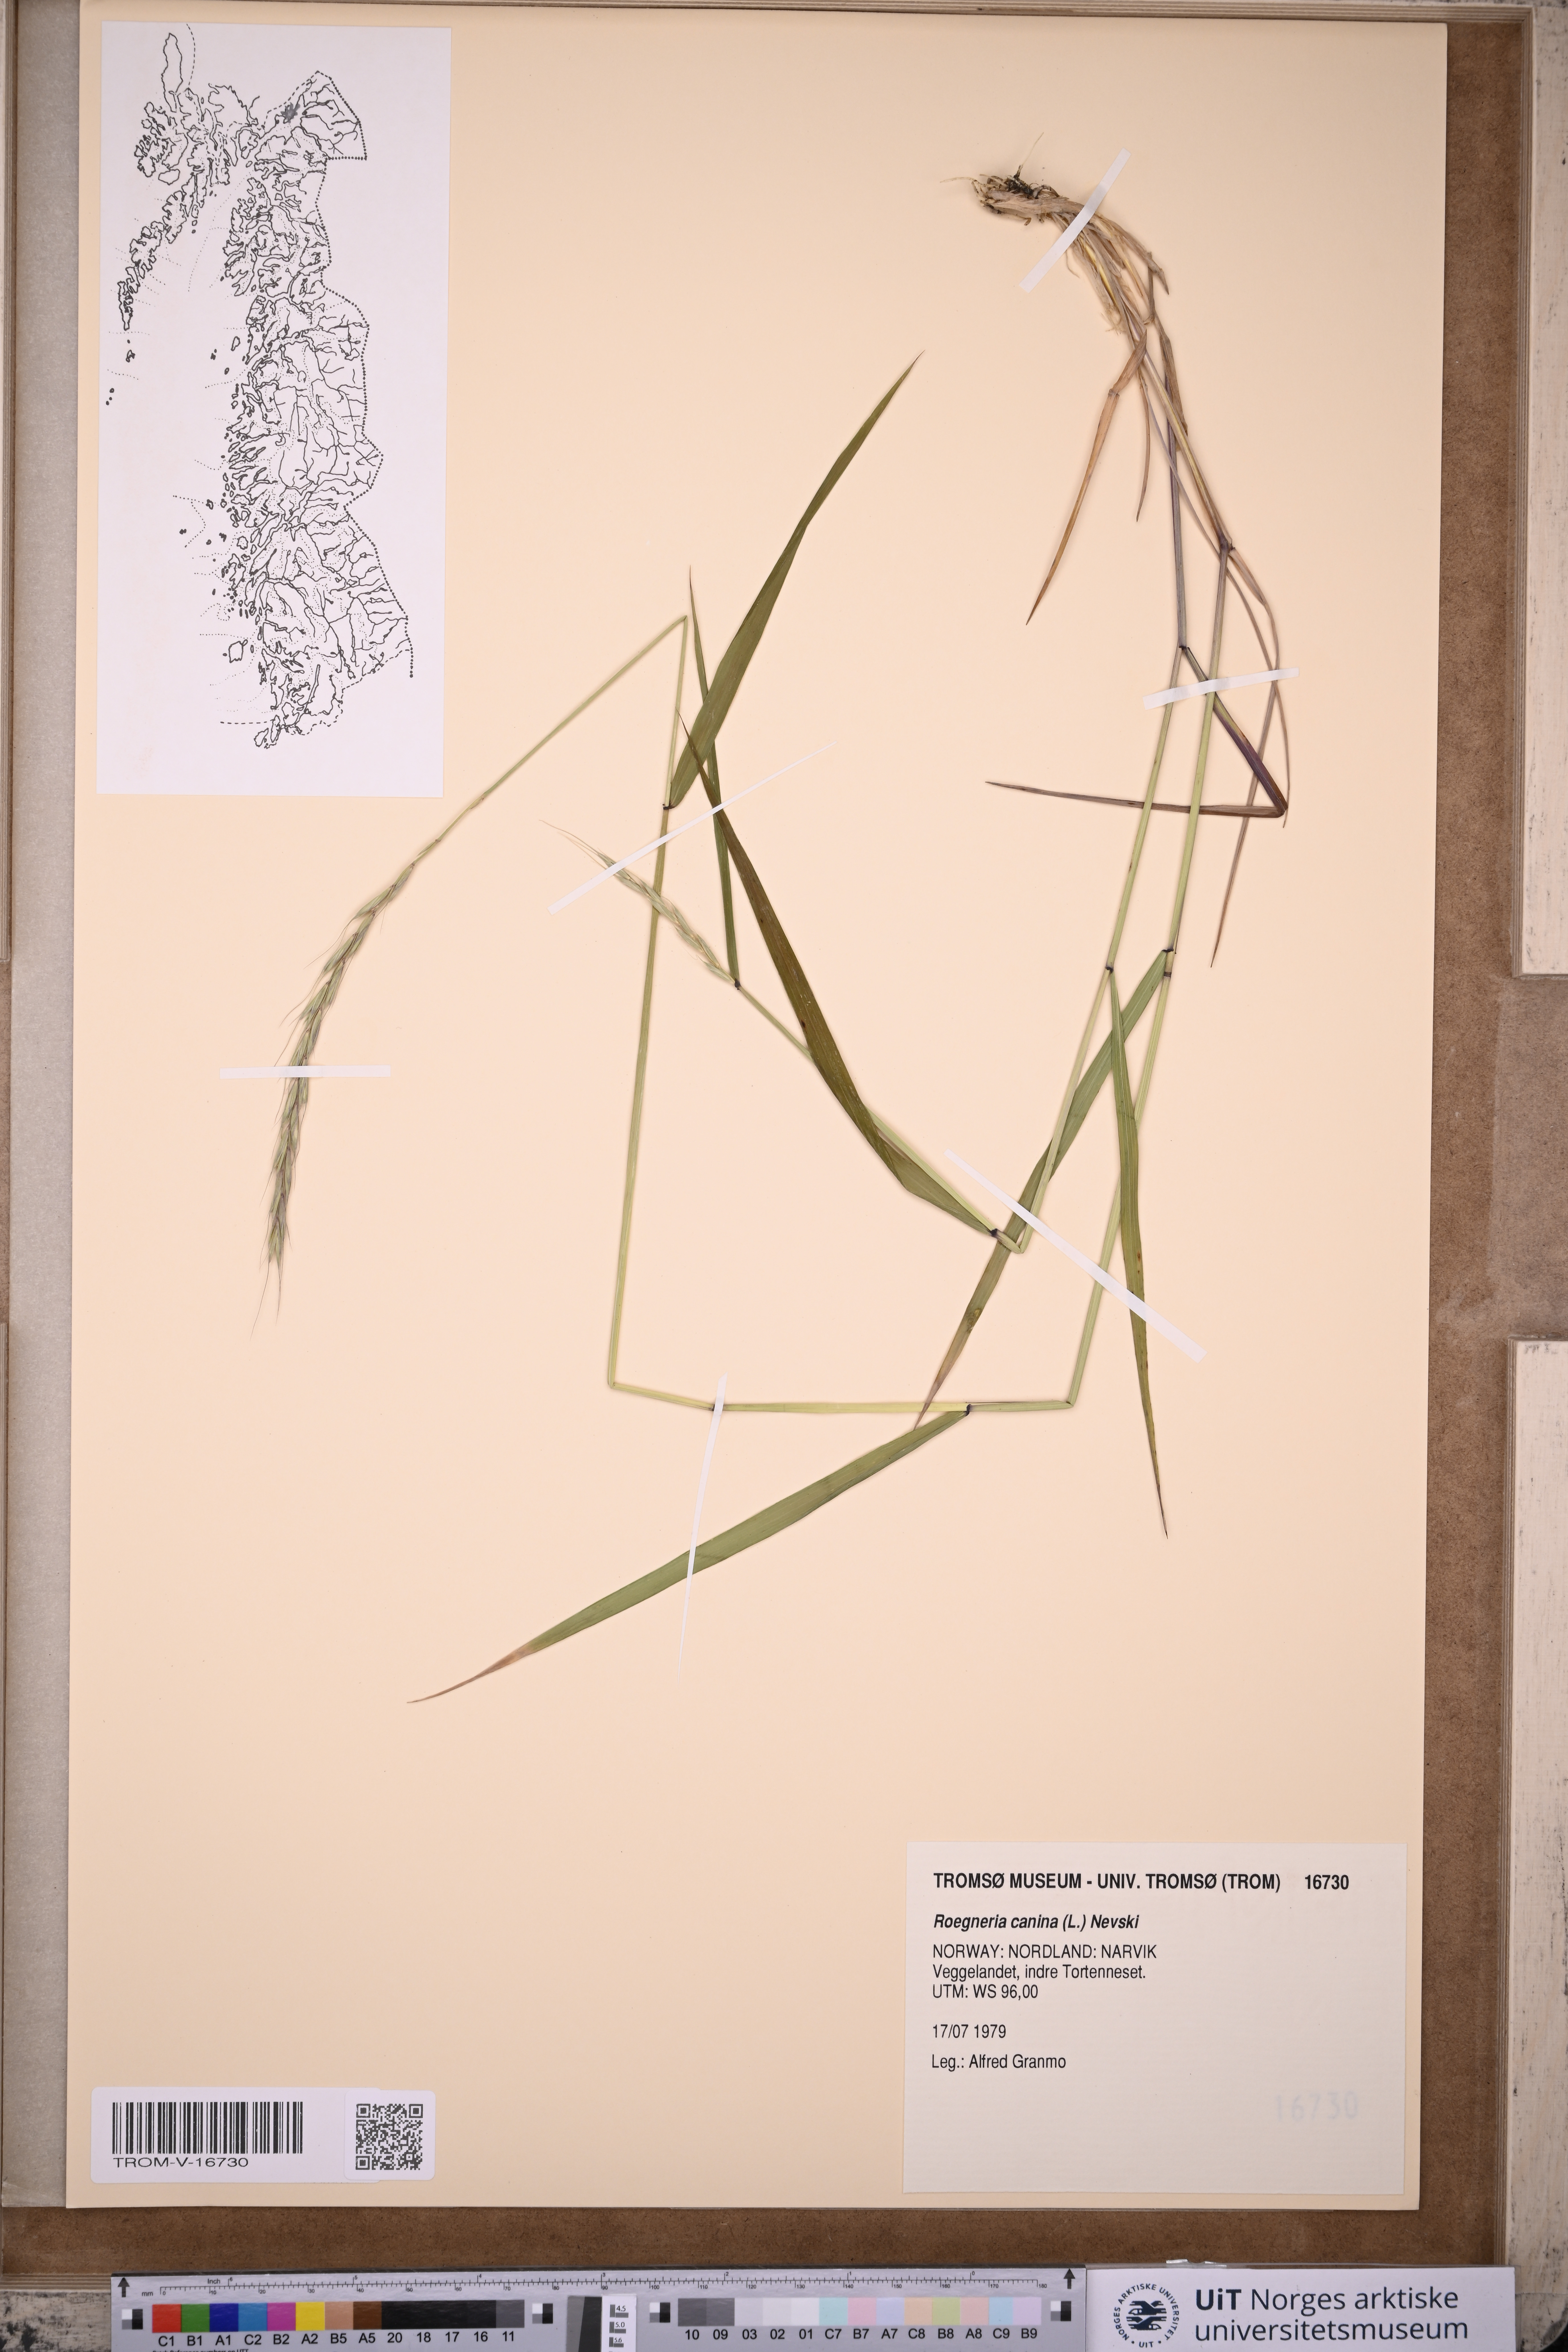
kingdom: Plantae
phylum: Tracheophyta
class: Liliopsida
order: Poales
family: Poaceae
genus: Elymus
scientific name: Elymus caninus
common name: Bearded couch
